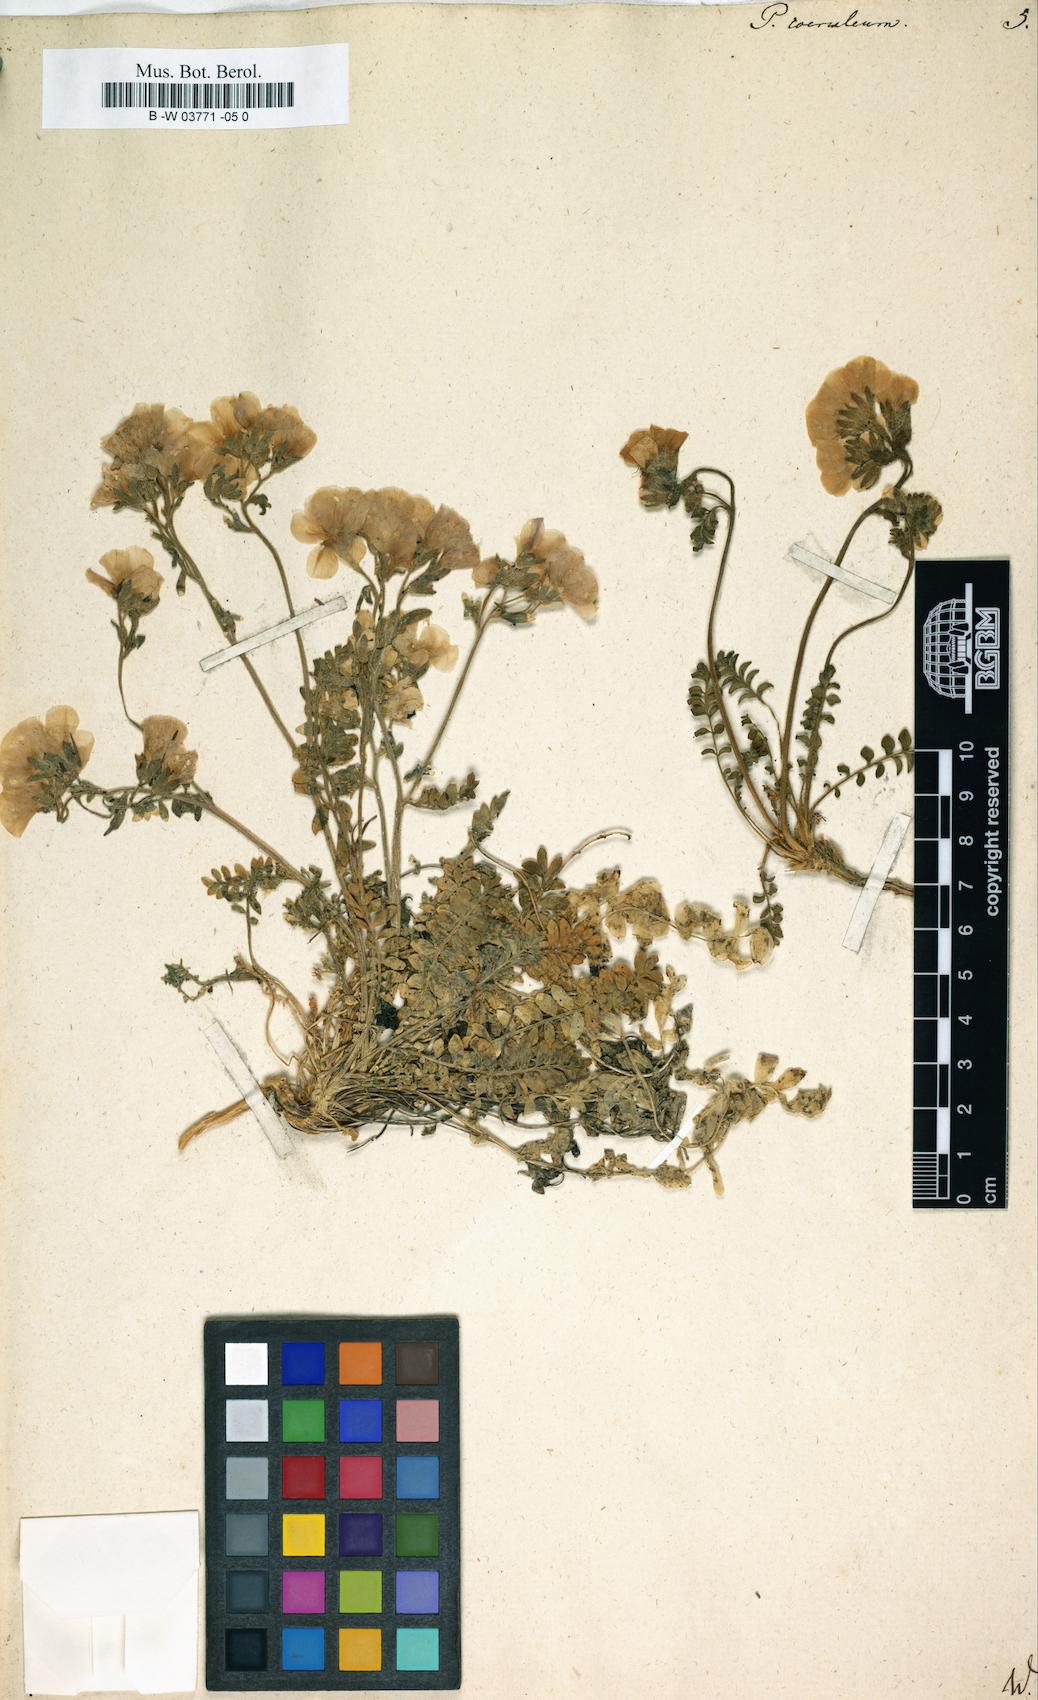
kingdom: Plantae
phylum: Tracheophyta
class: Magnoliopsida
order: Ericales
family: Polemoniaceae
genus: Polemonium
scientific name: Polemonium caeruleum
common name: Jacob's-ladder
